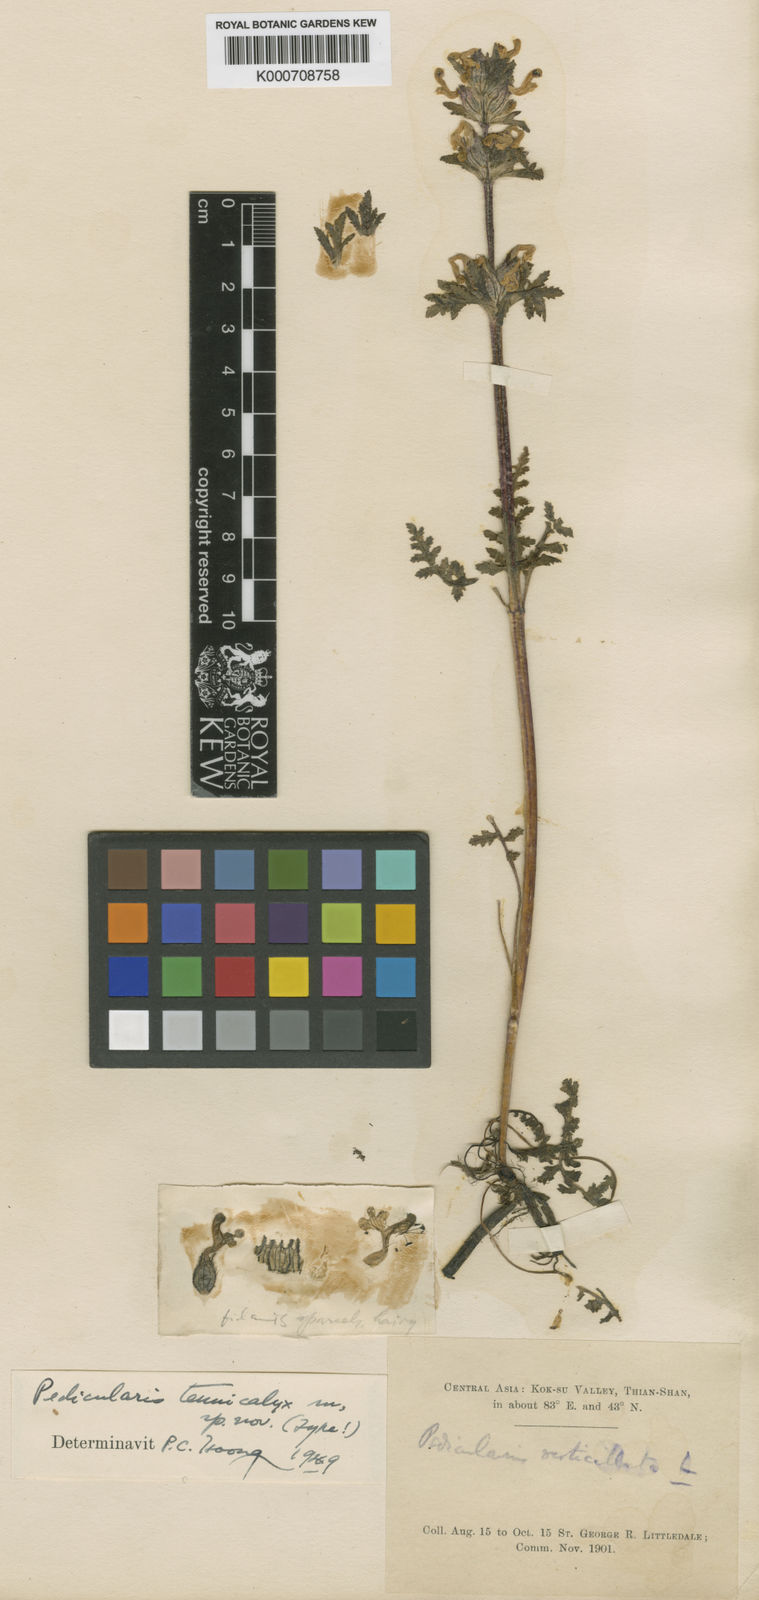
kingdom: Plantae
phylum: Tracheophyta
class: Magnoliopsida
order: Lamiales
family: Orobanchaceae
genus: Pedicularis
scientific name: Pedicularis
